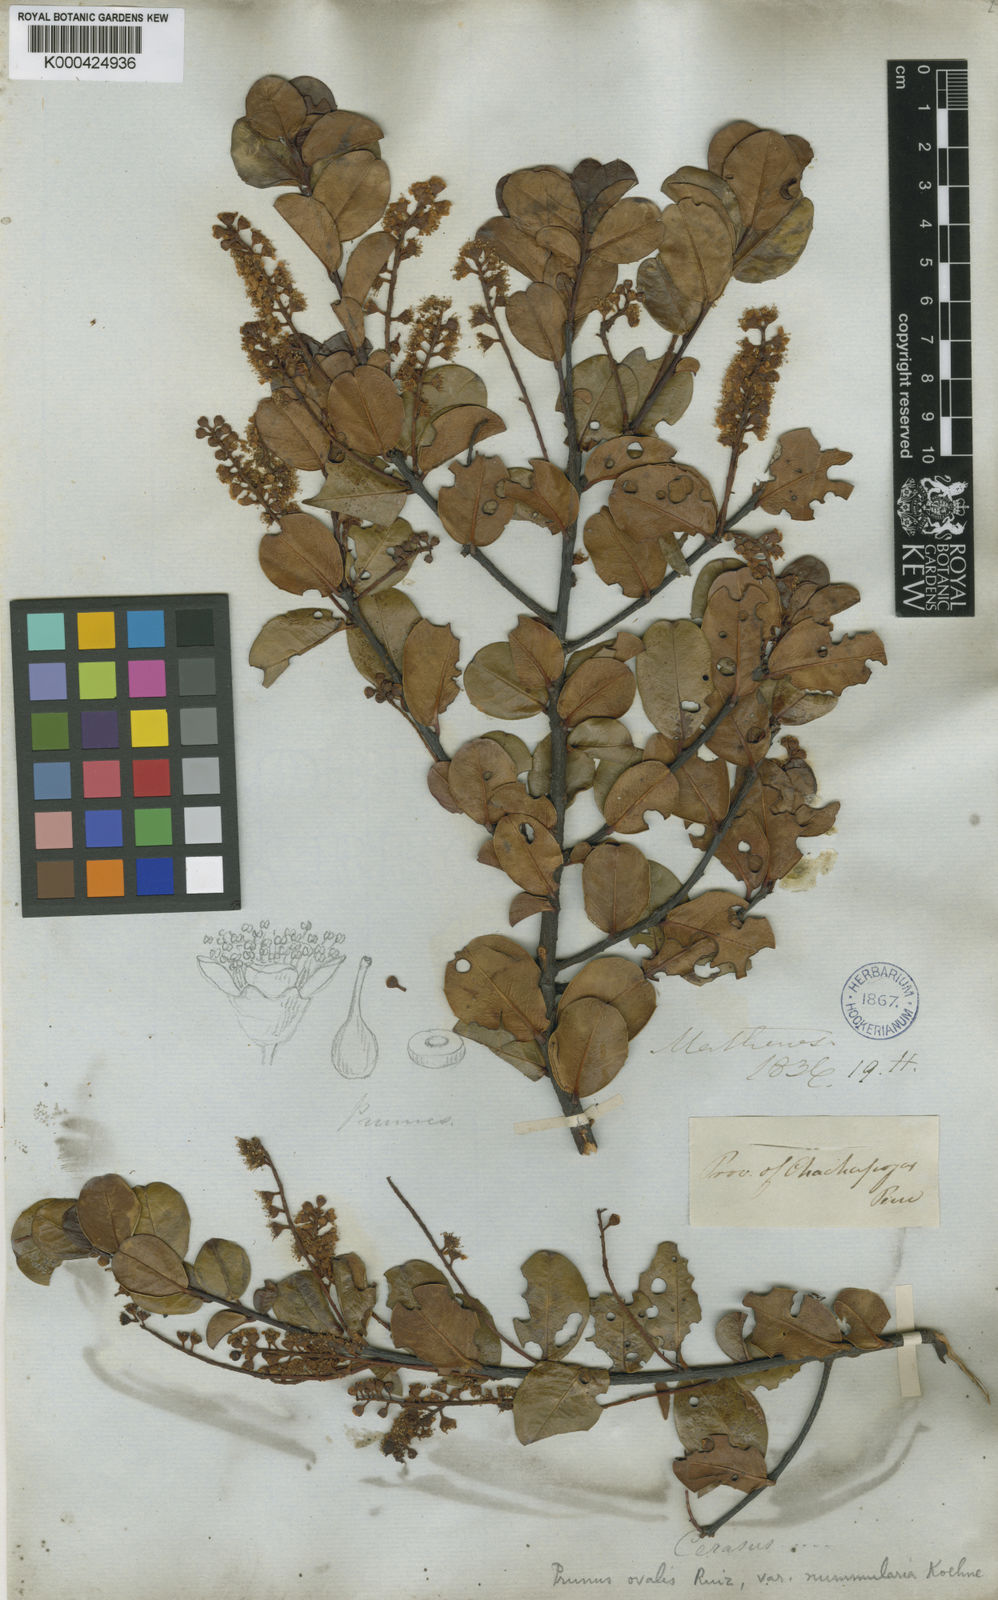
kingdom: Plantae
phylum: Tracheophyta
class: Magnoliopsida
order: Rosales
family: Rosaceae
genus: Prunus
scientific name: Prunus ovalis
